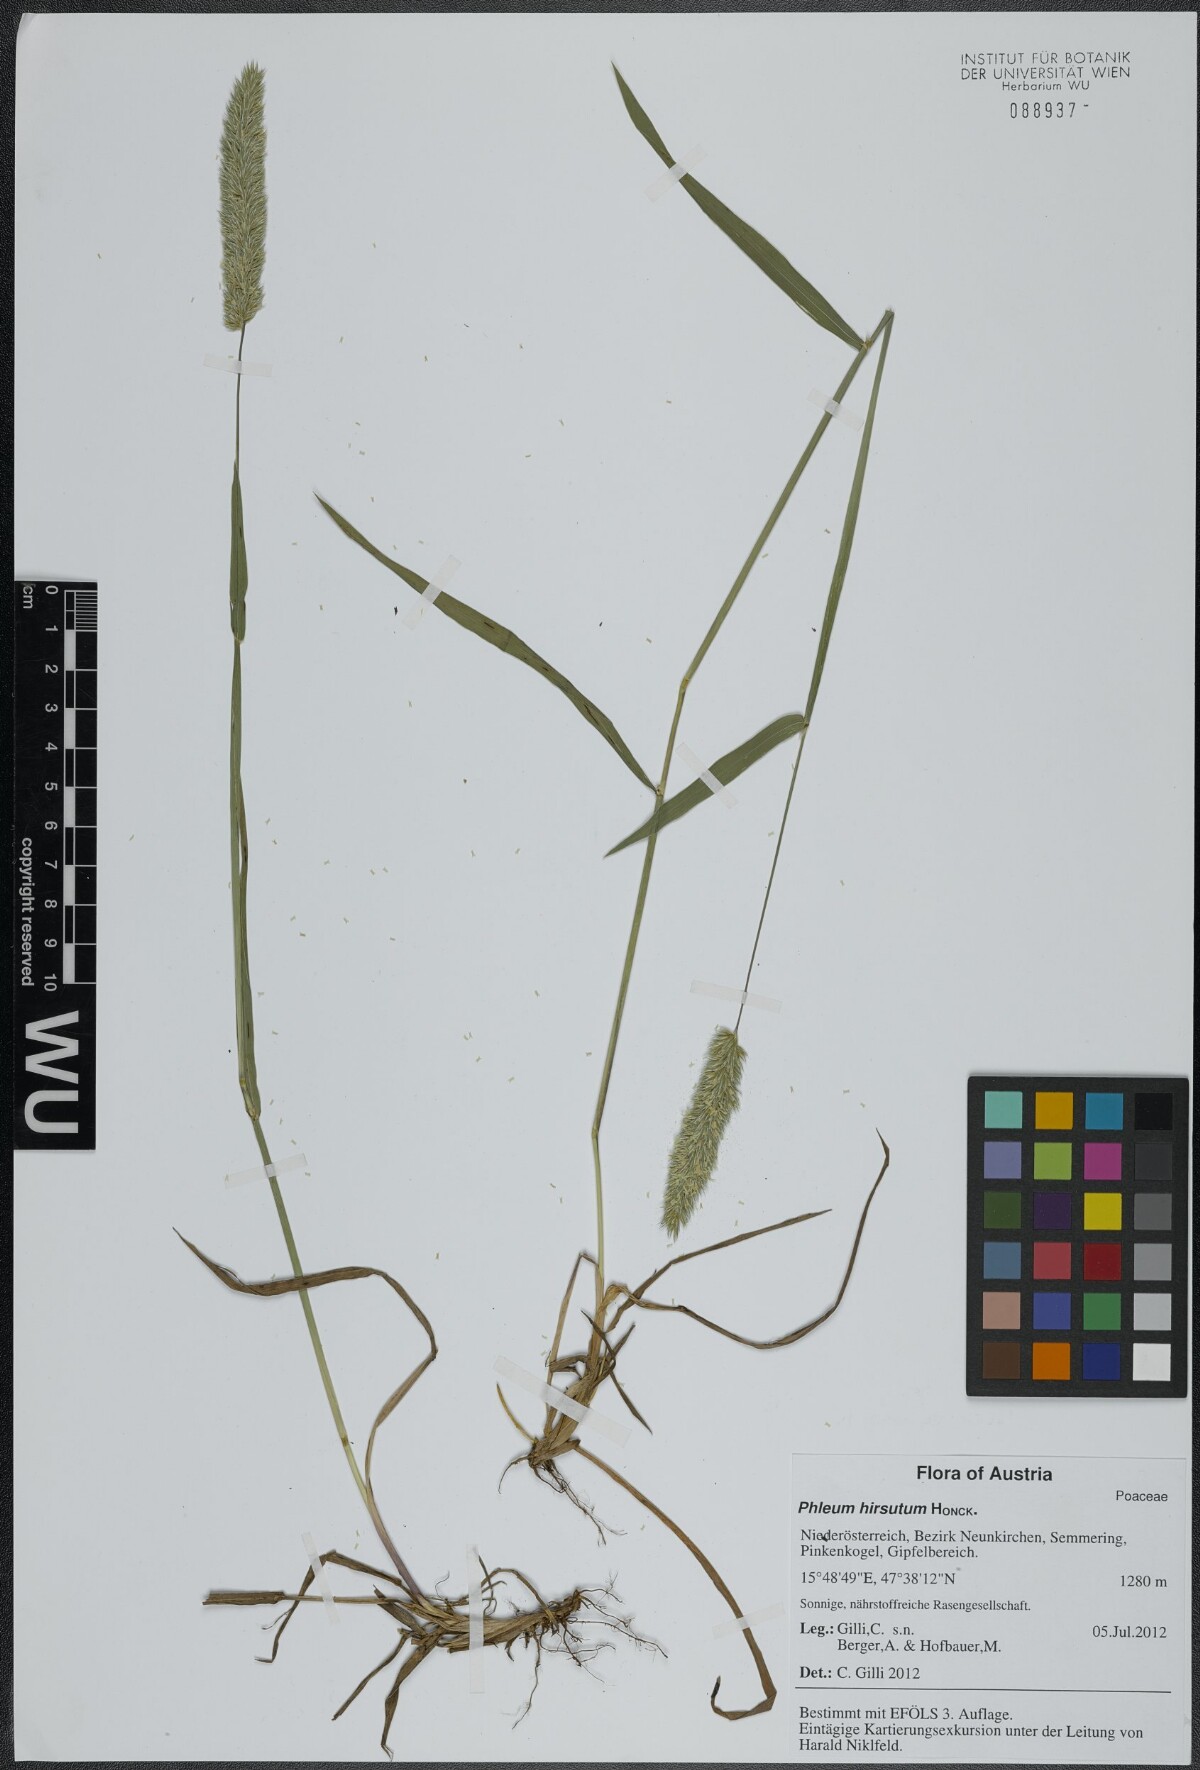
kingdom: Plantae
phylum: Tracheophyta
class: Liliopsida
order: Poales
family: Poaceae
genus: Phleum
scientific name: Phleum hirsutum
